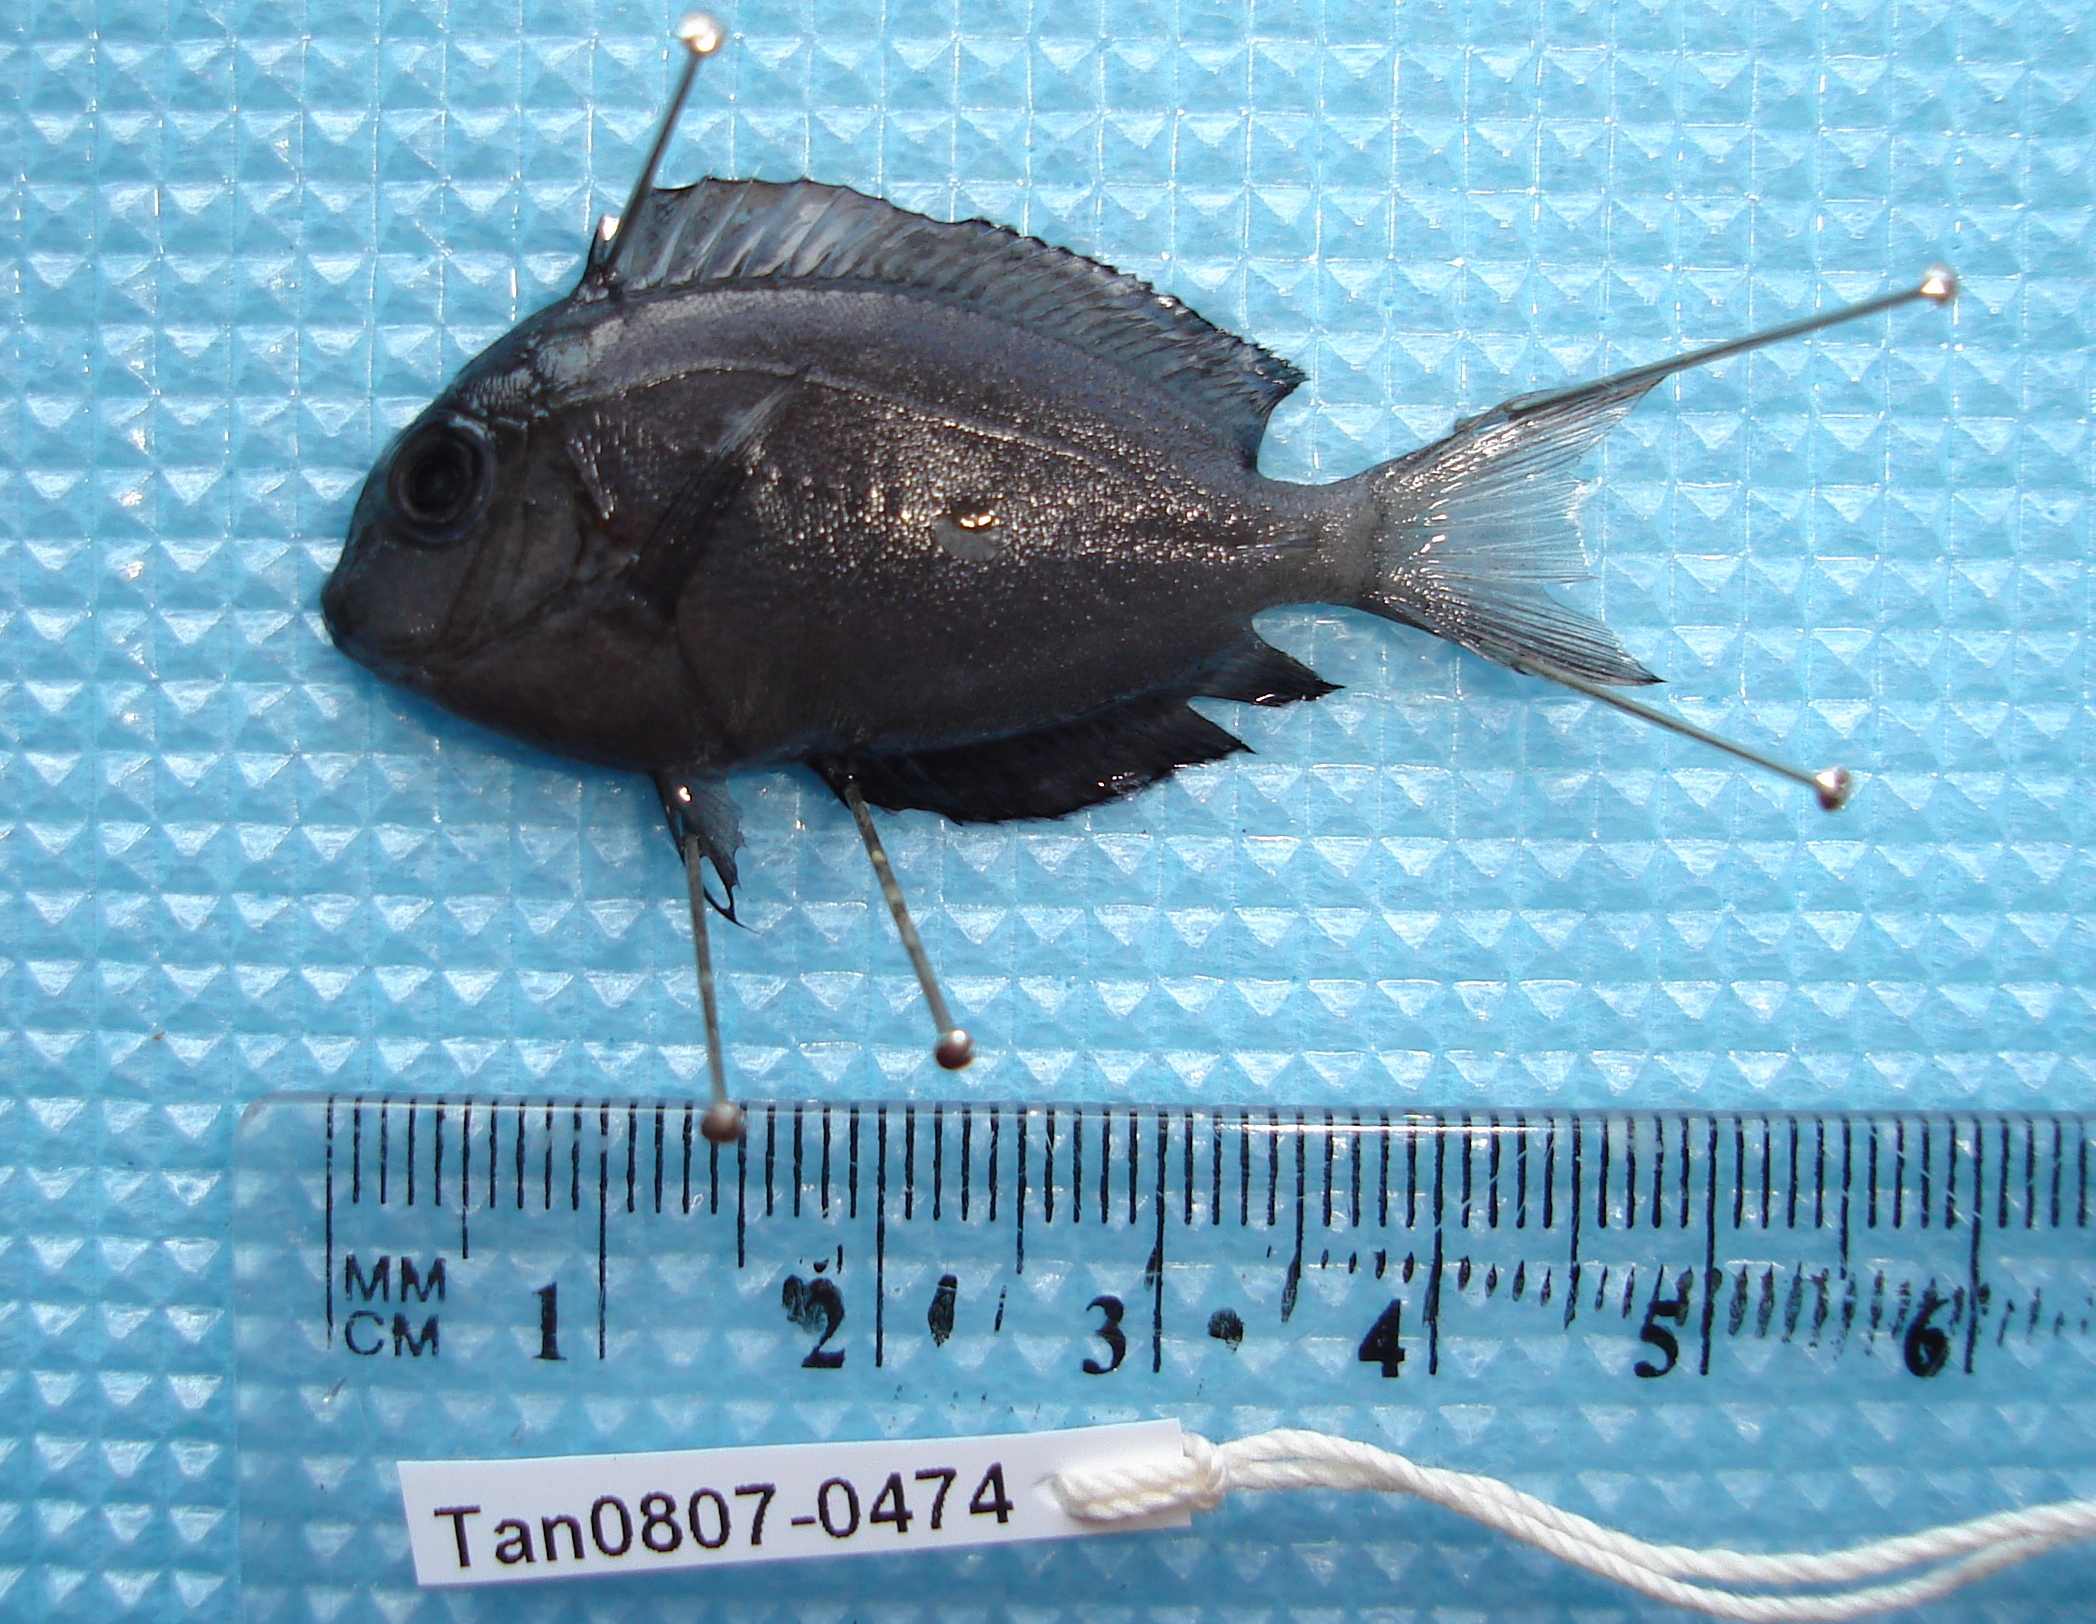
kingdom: Animalia
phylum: Chordata
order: Perciformes
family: Acanthuridae
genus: Acanthurus
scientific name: Acanthurus thompsoni
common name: Chocolate surgeonfish
